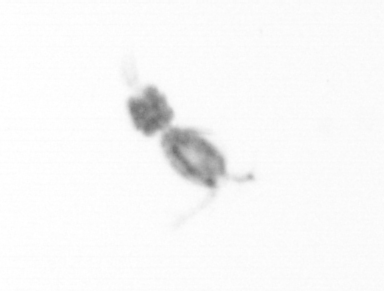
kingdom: Animalia
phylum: Arthropoda
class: Copepoda
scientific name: Copepoda
